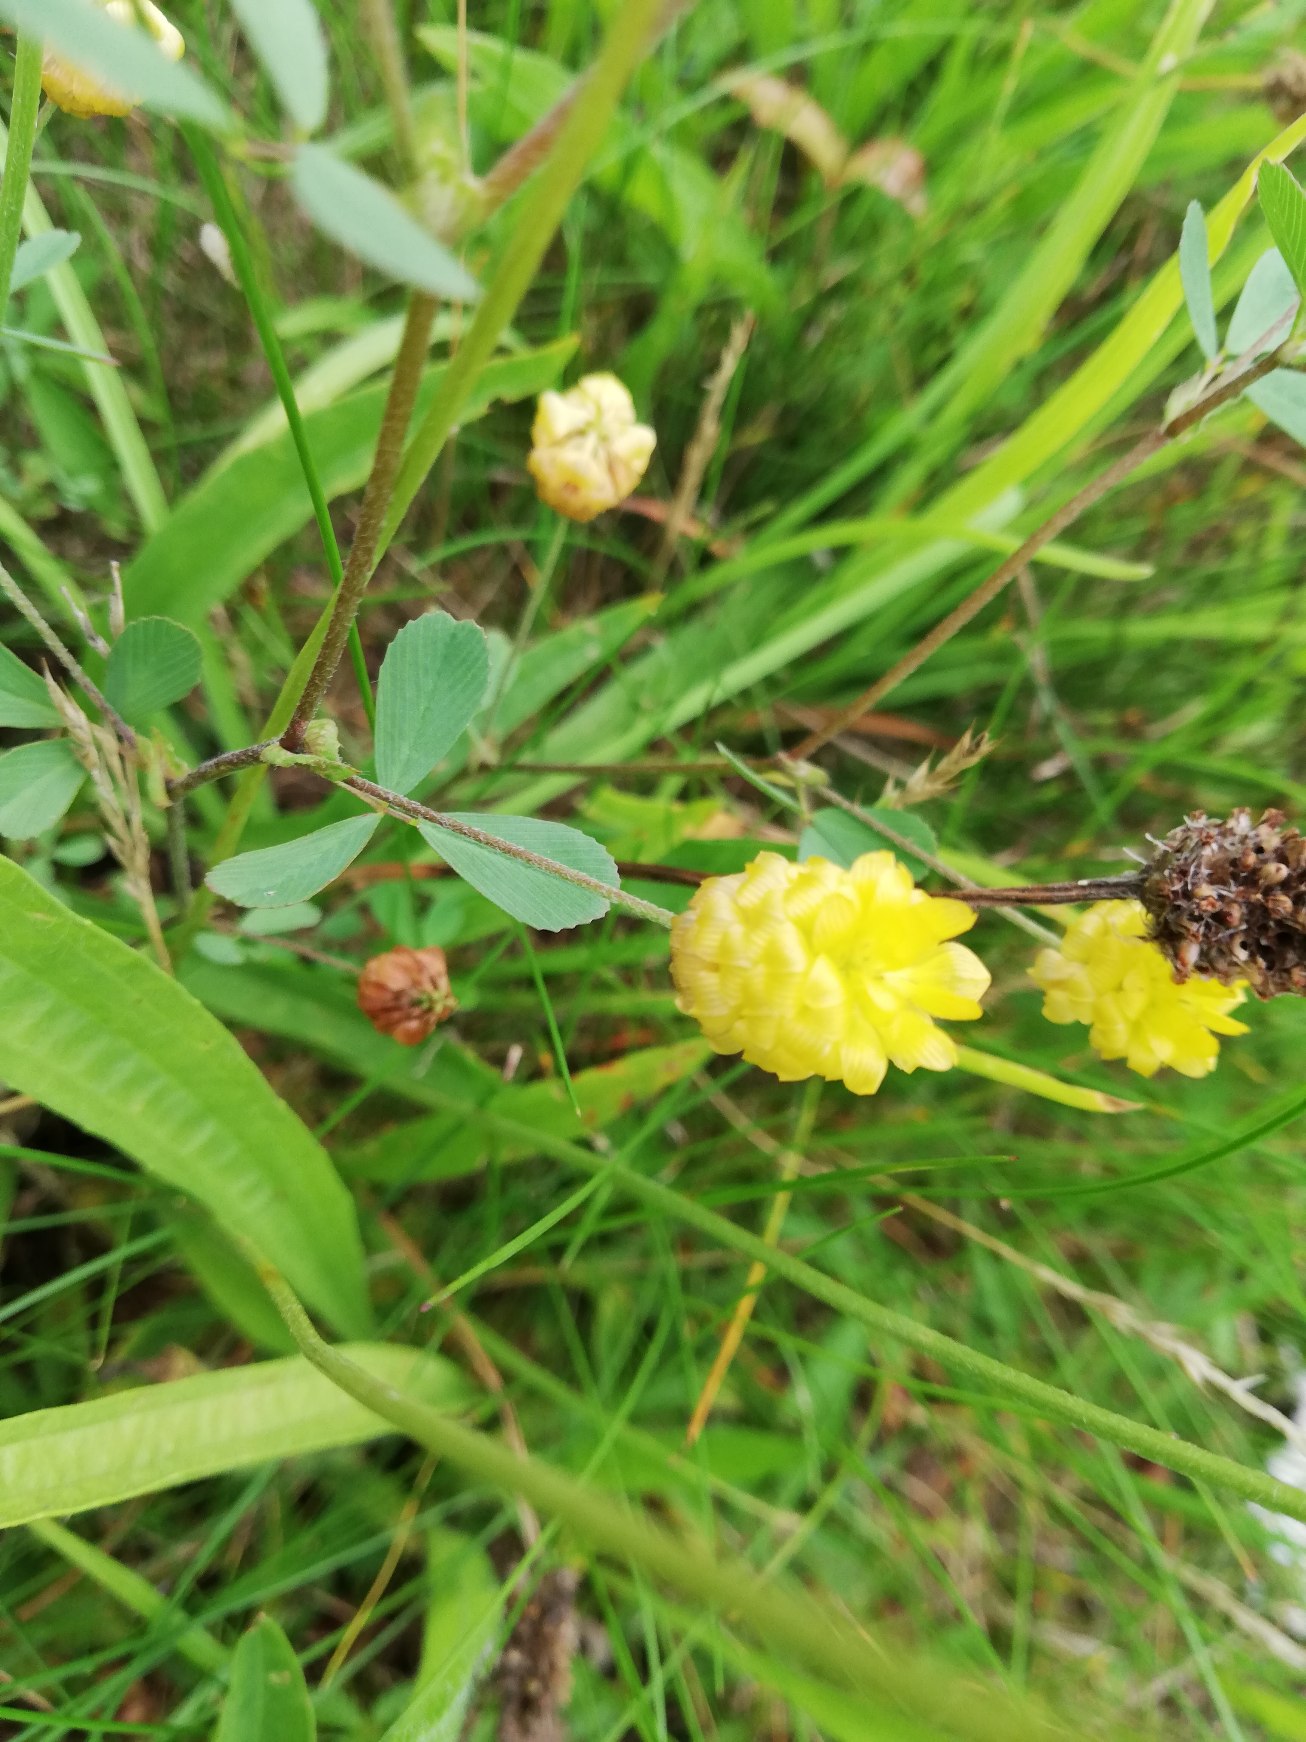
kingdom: Plantae
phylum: Tracheophyta
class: Magnoliopsida
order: Fabales
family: Fabaceae
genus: Trifolium
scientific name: Trifolium campestre
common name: Gul kløver
